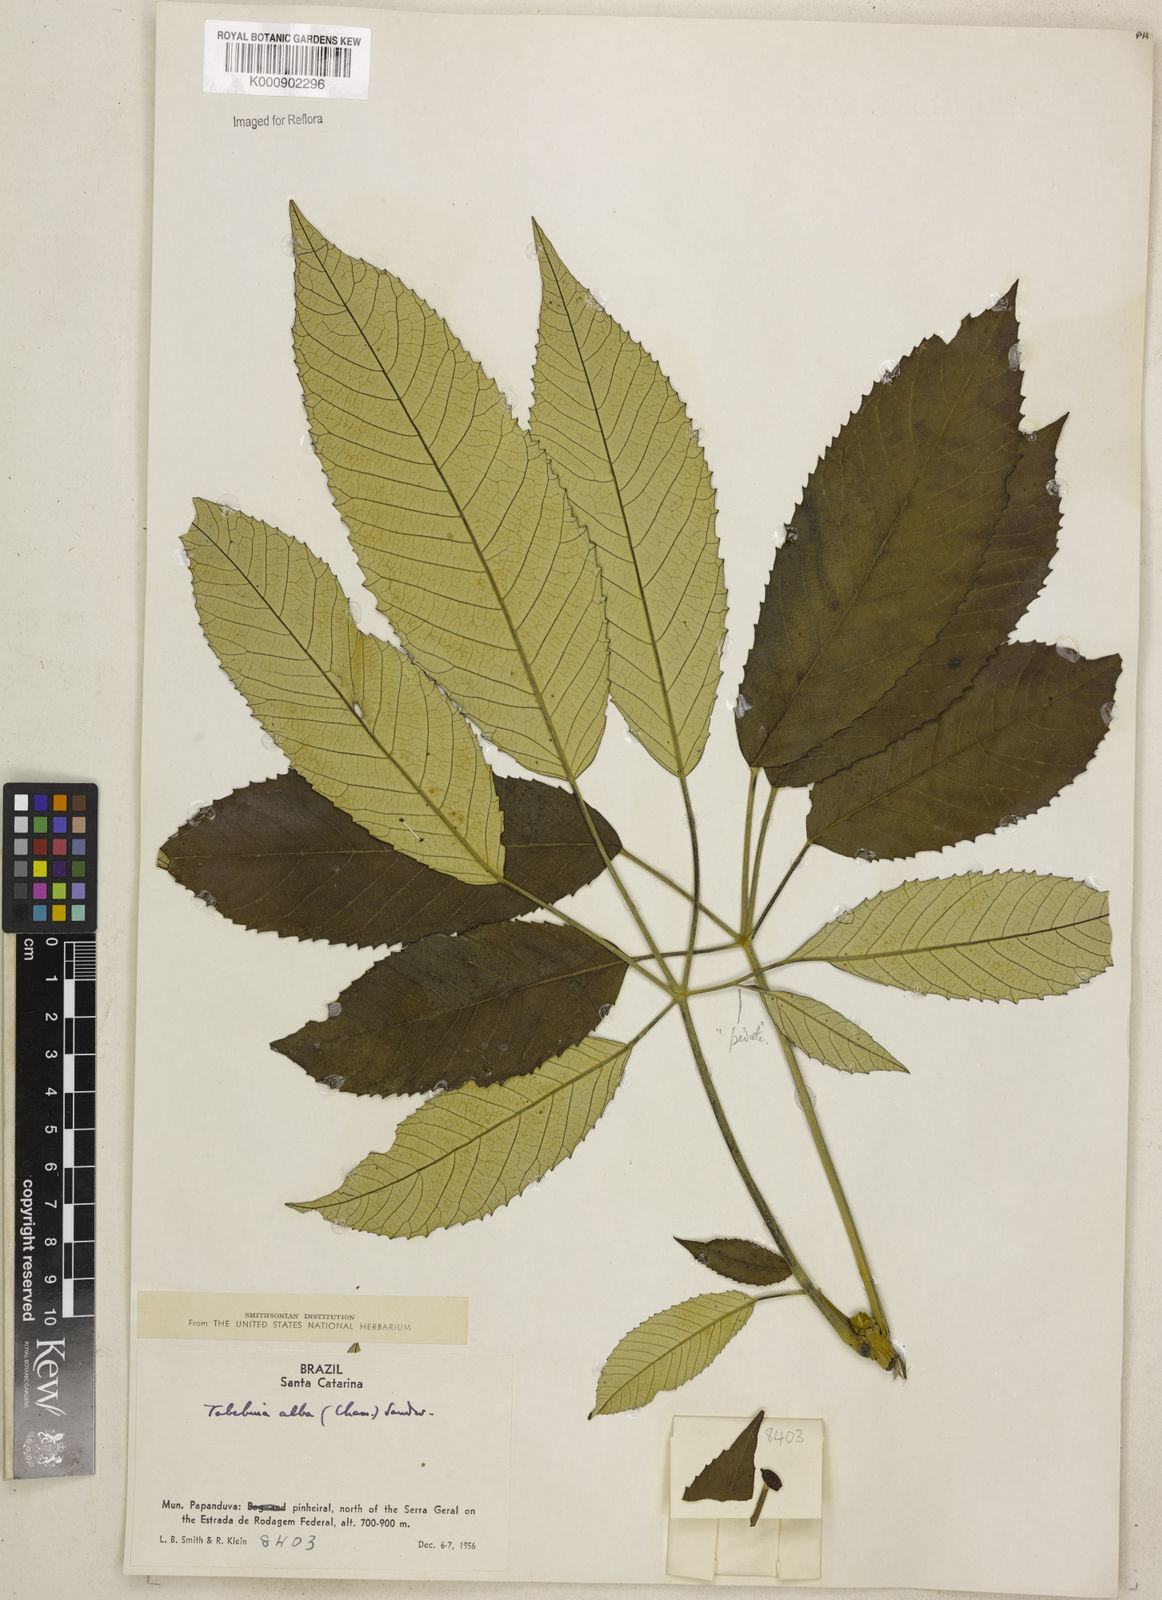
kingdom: Plantae
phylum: Tracheophyta
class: Magnoliopsida
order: Lamiales
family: Bignoniaceae
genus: Handroanthus
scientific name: Handroanthus albus
